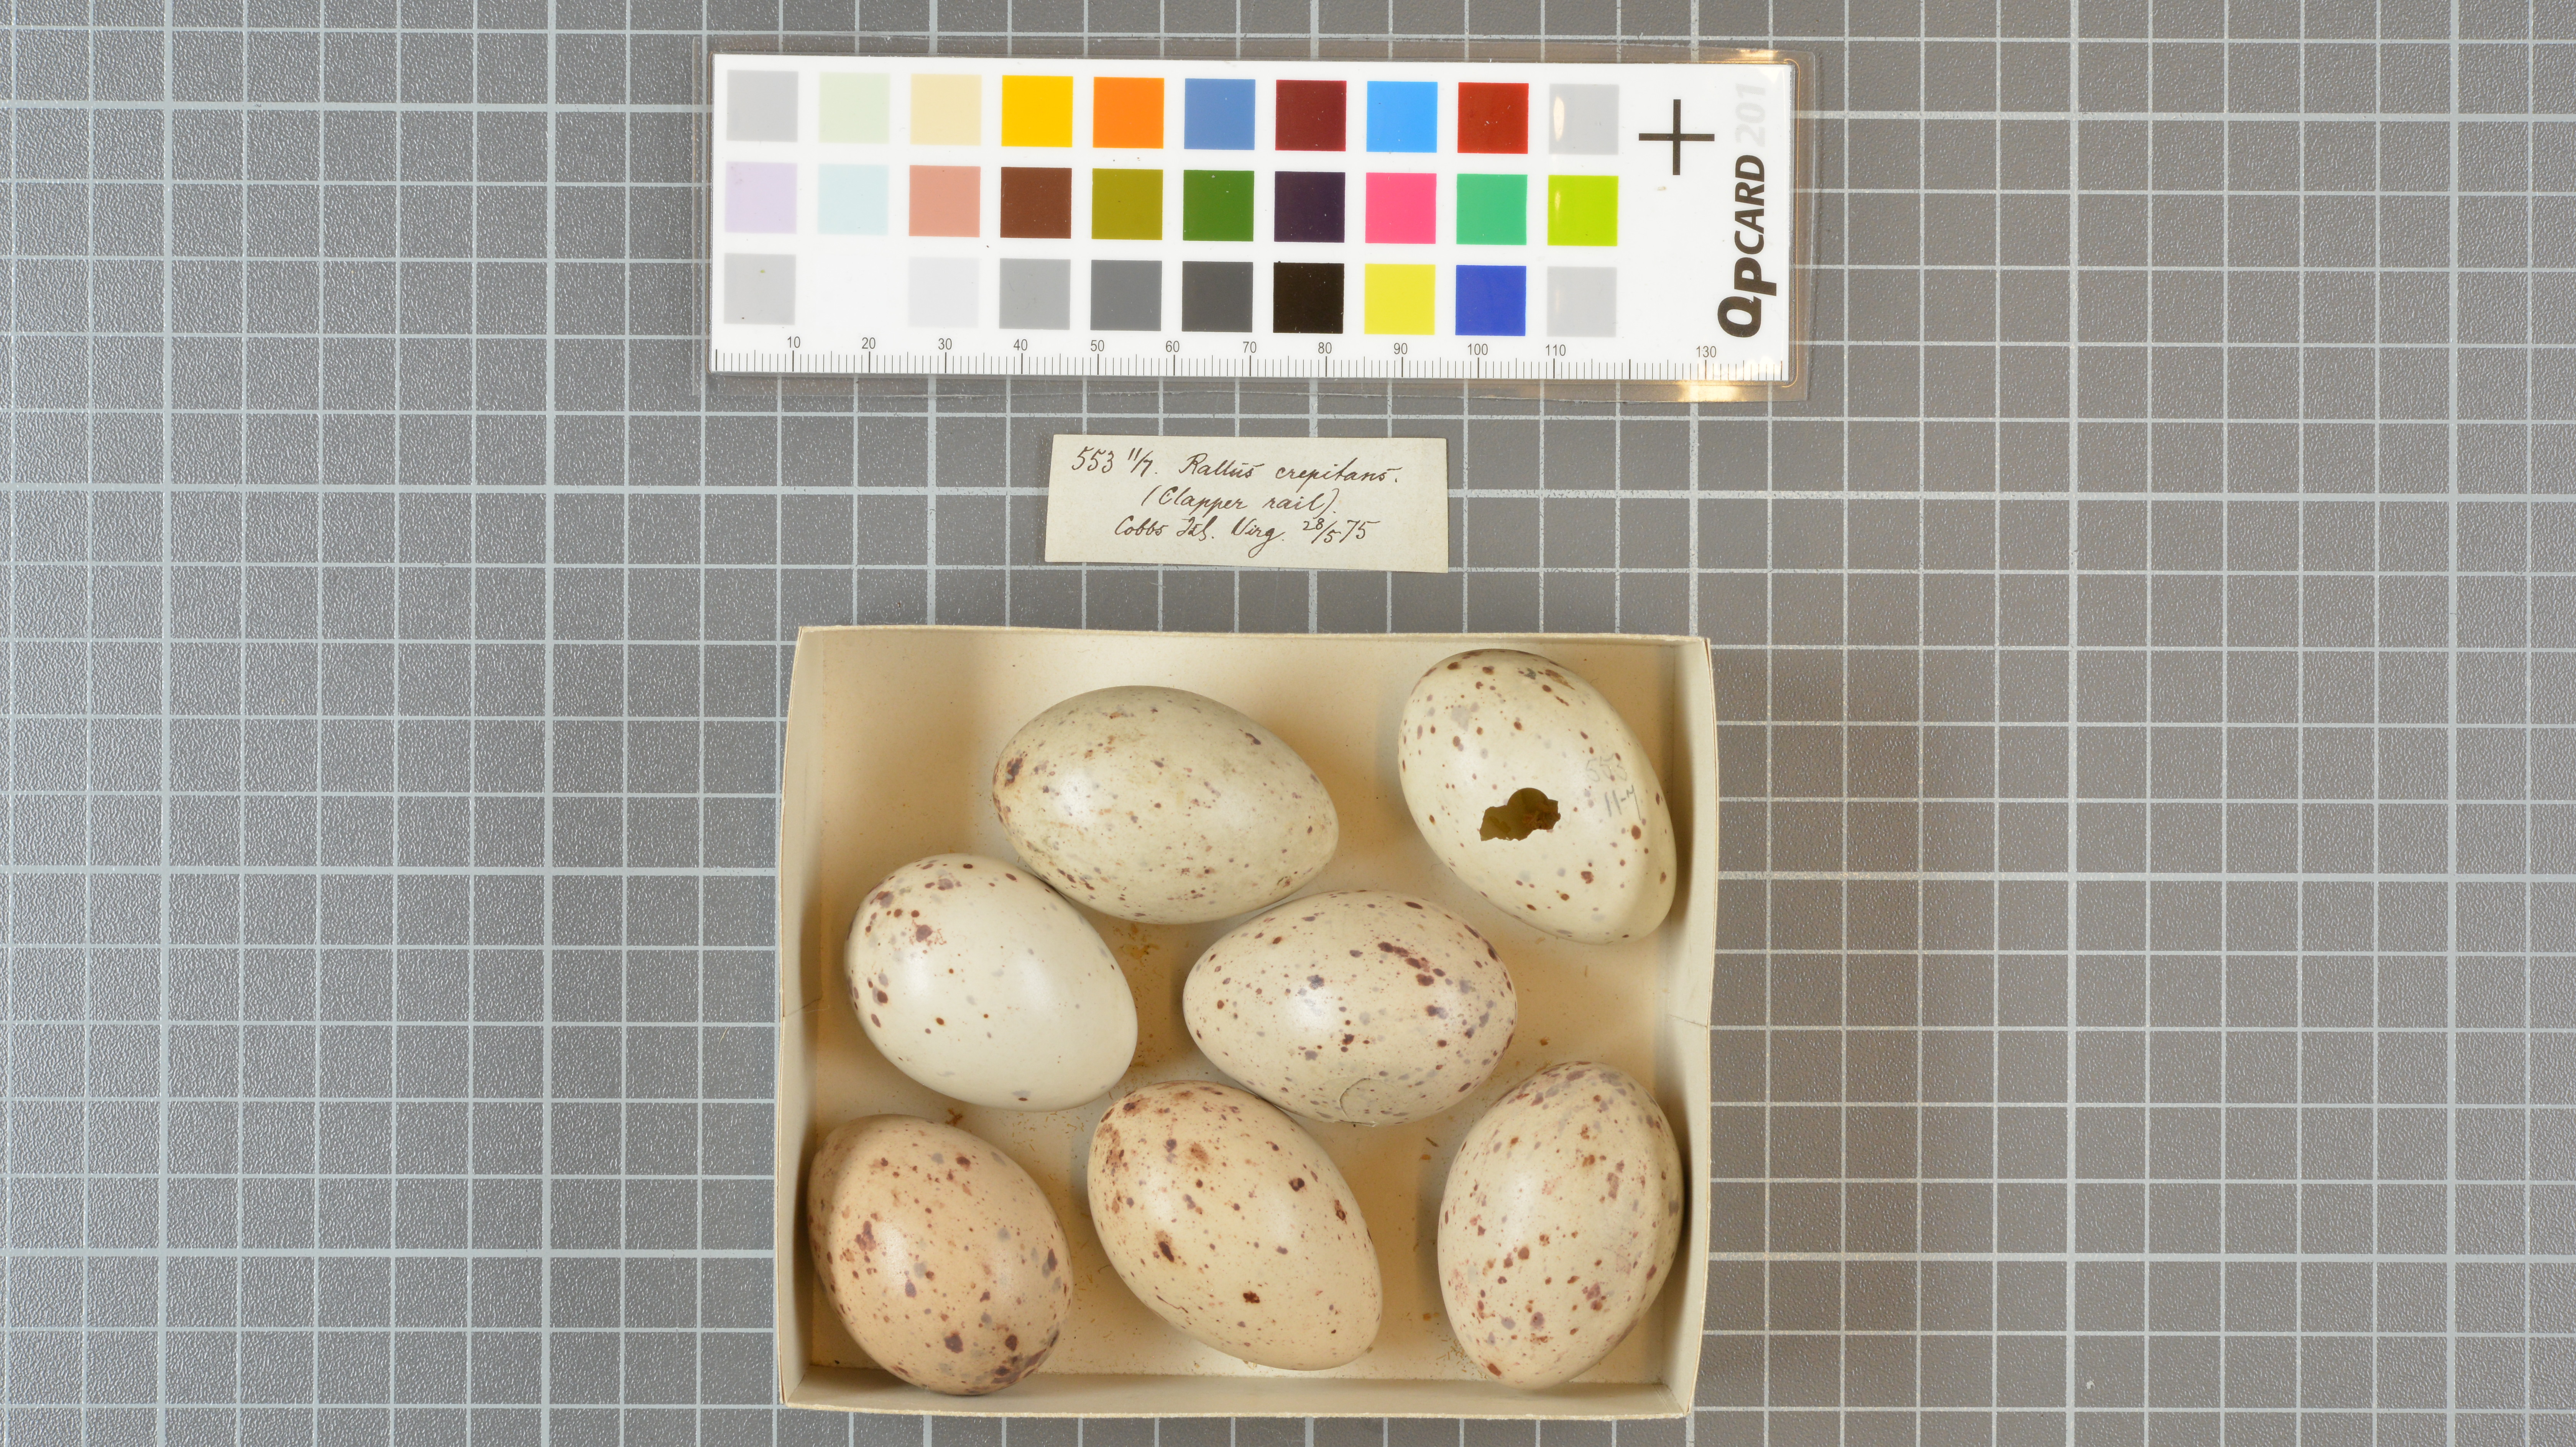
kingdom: Animalia
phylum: Chordata
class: Aves
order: Gruiformes
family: Rallidae
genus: Rallus
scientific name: Rallus crepitans
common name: Clapper rail
